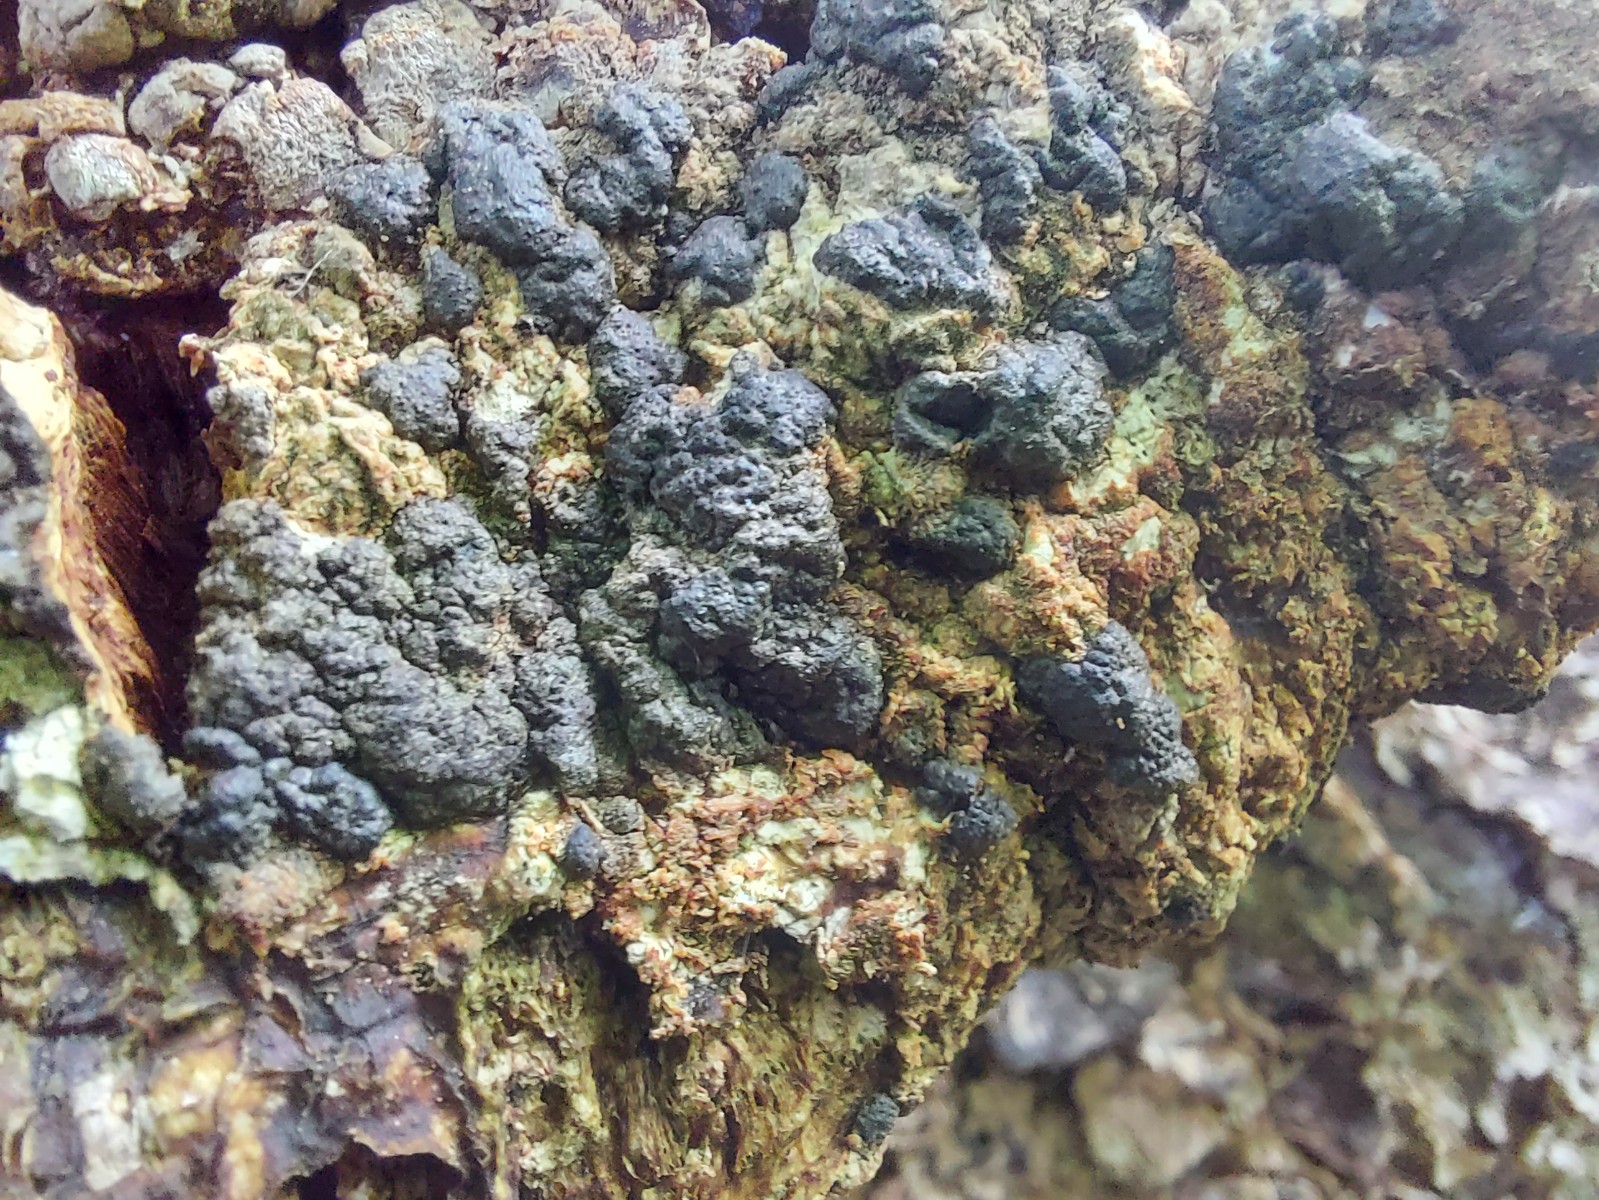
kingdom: Fungi
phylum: Ascomycota
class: Sordariomycetes
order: Xylariales
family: Xylariaceae
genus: Nemania
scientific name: Nemania serpens
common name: hovpore-kuldyne
